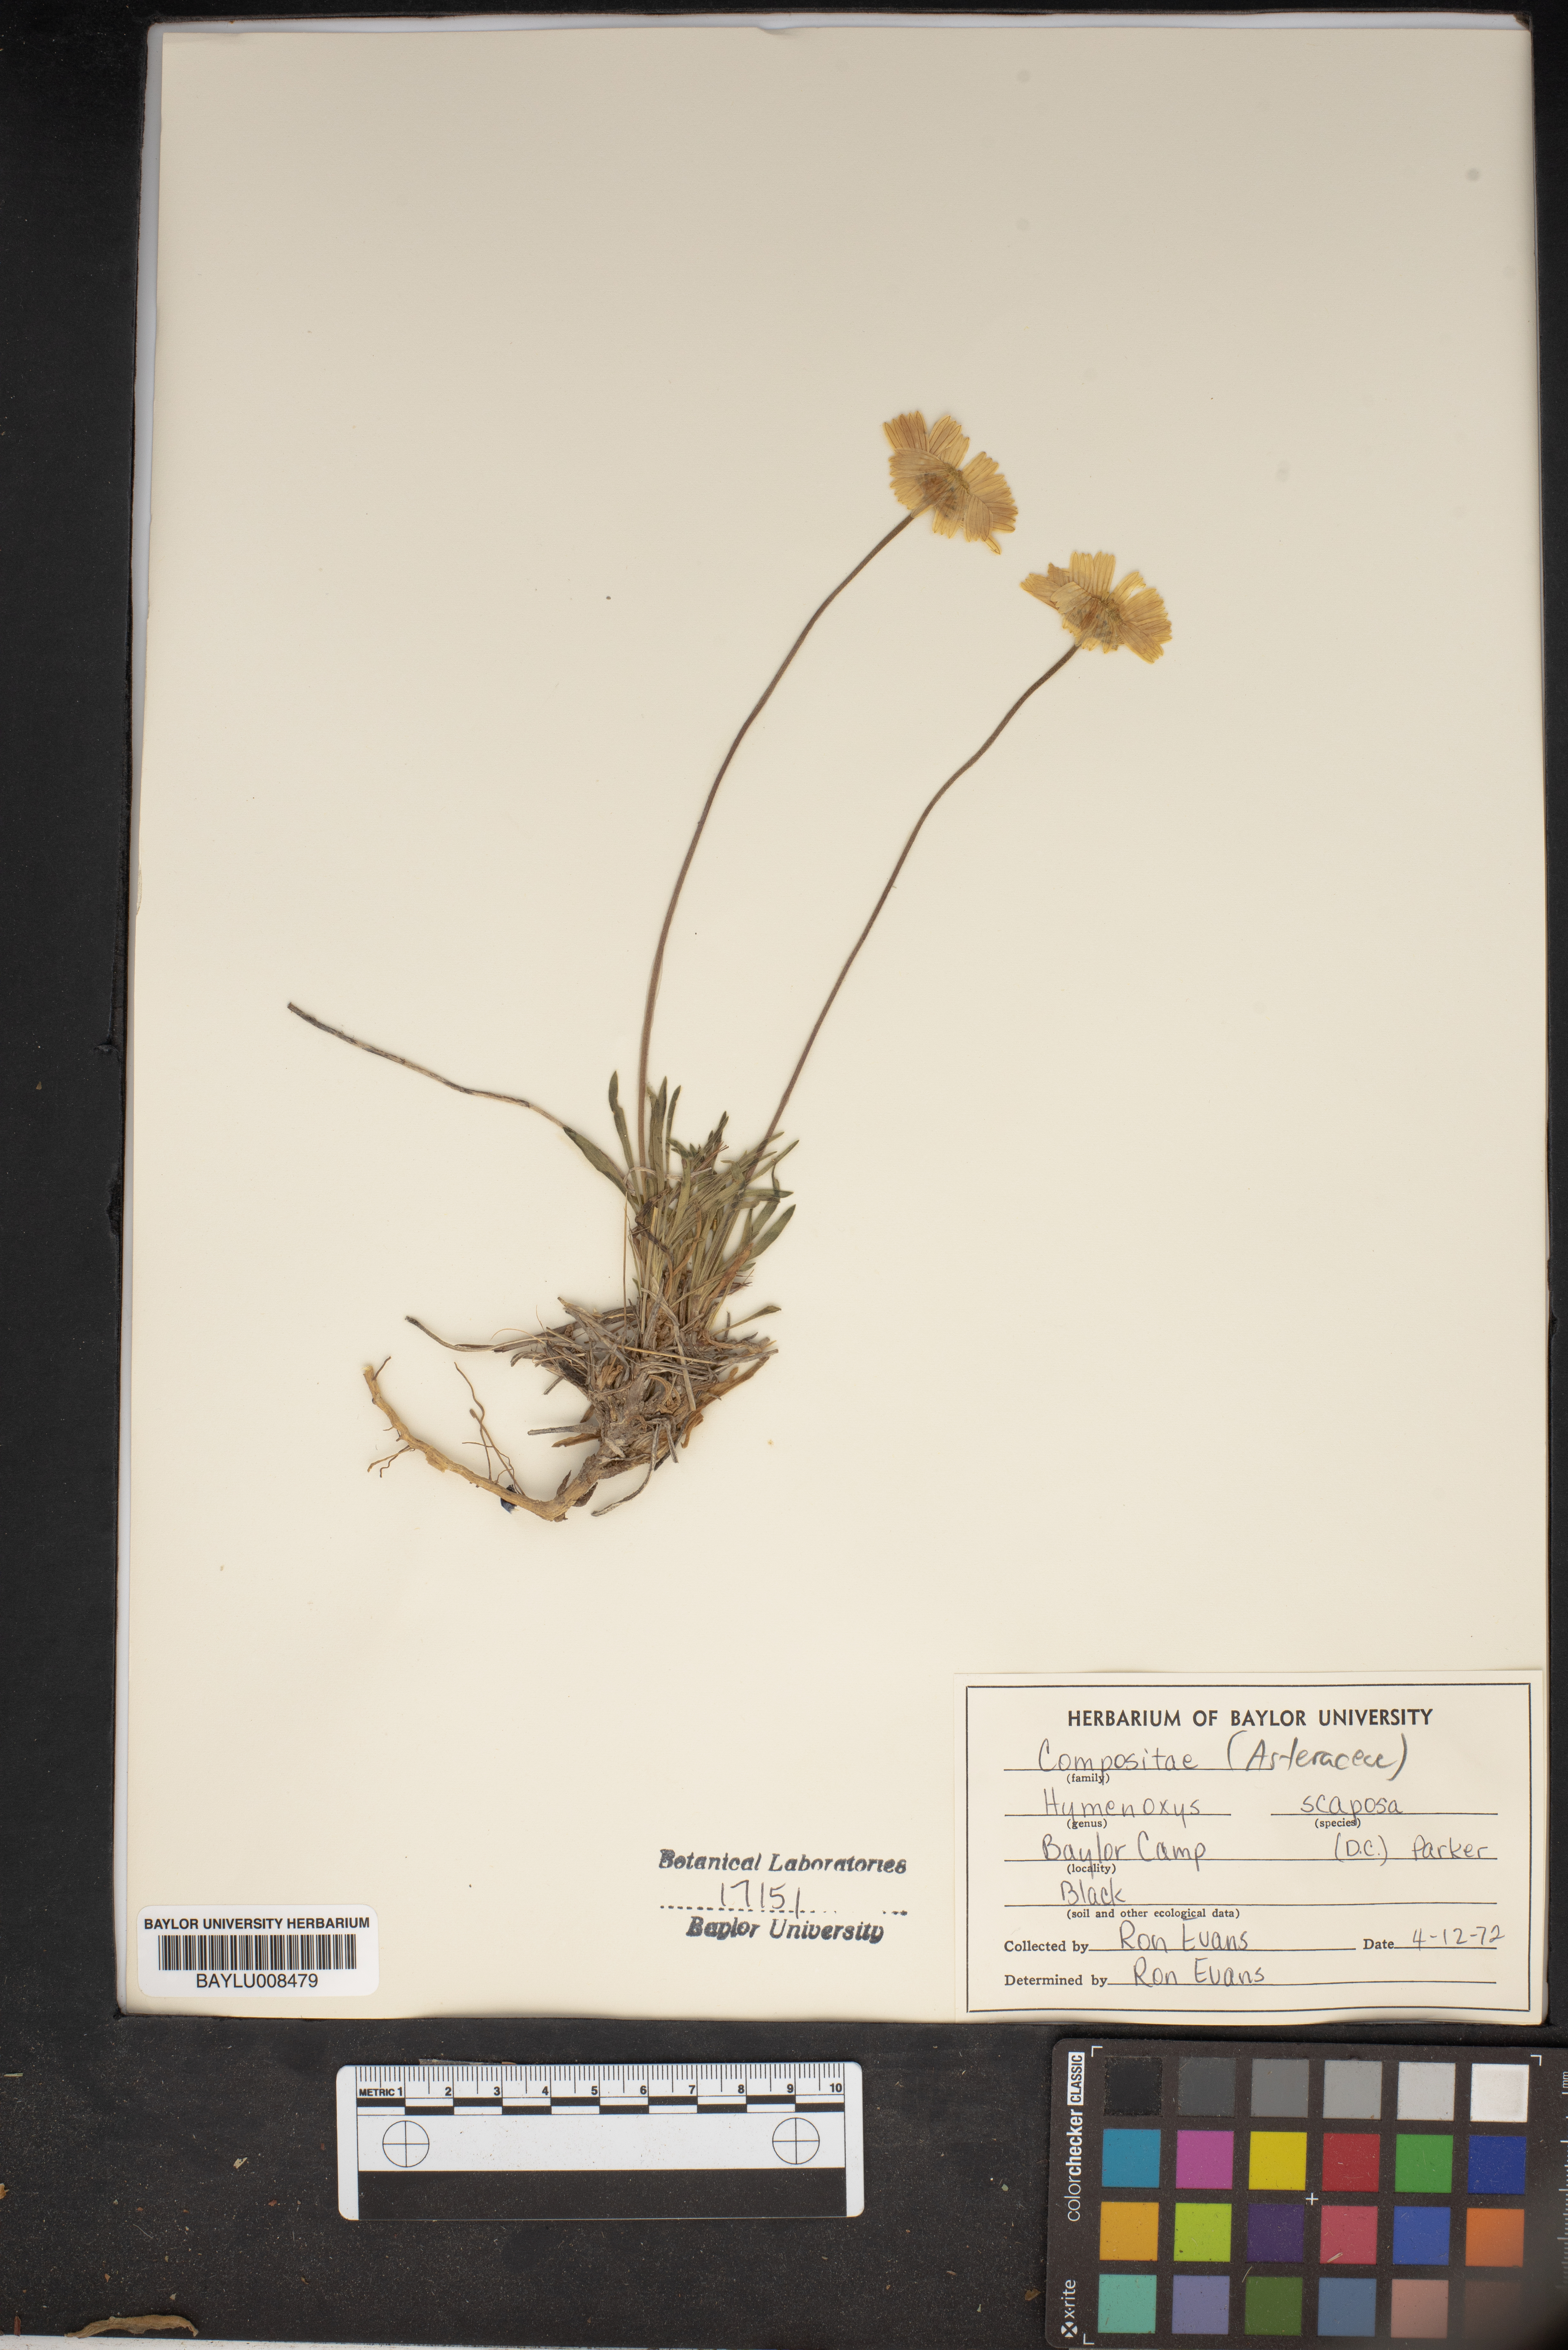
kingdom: Plantae
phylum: Tracheophyta
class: Magnoliopsida
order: Asterales
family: Asteraceae
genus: Tetraneuris
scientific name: Tetraneuris scaposa
